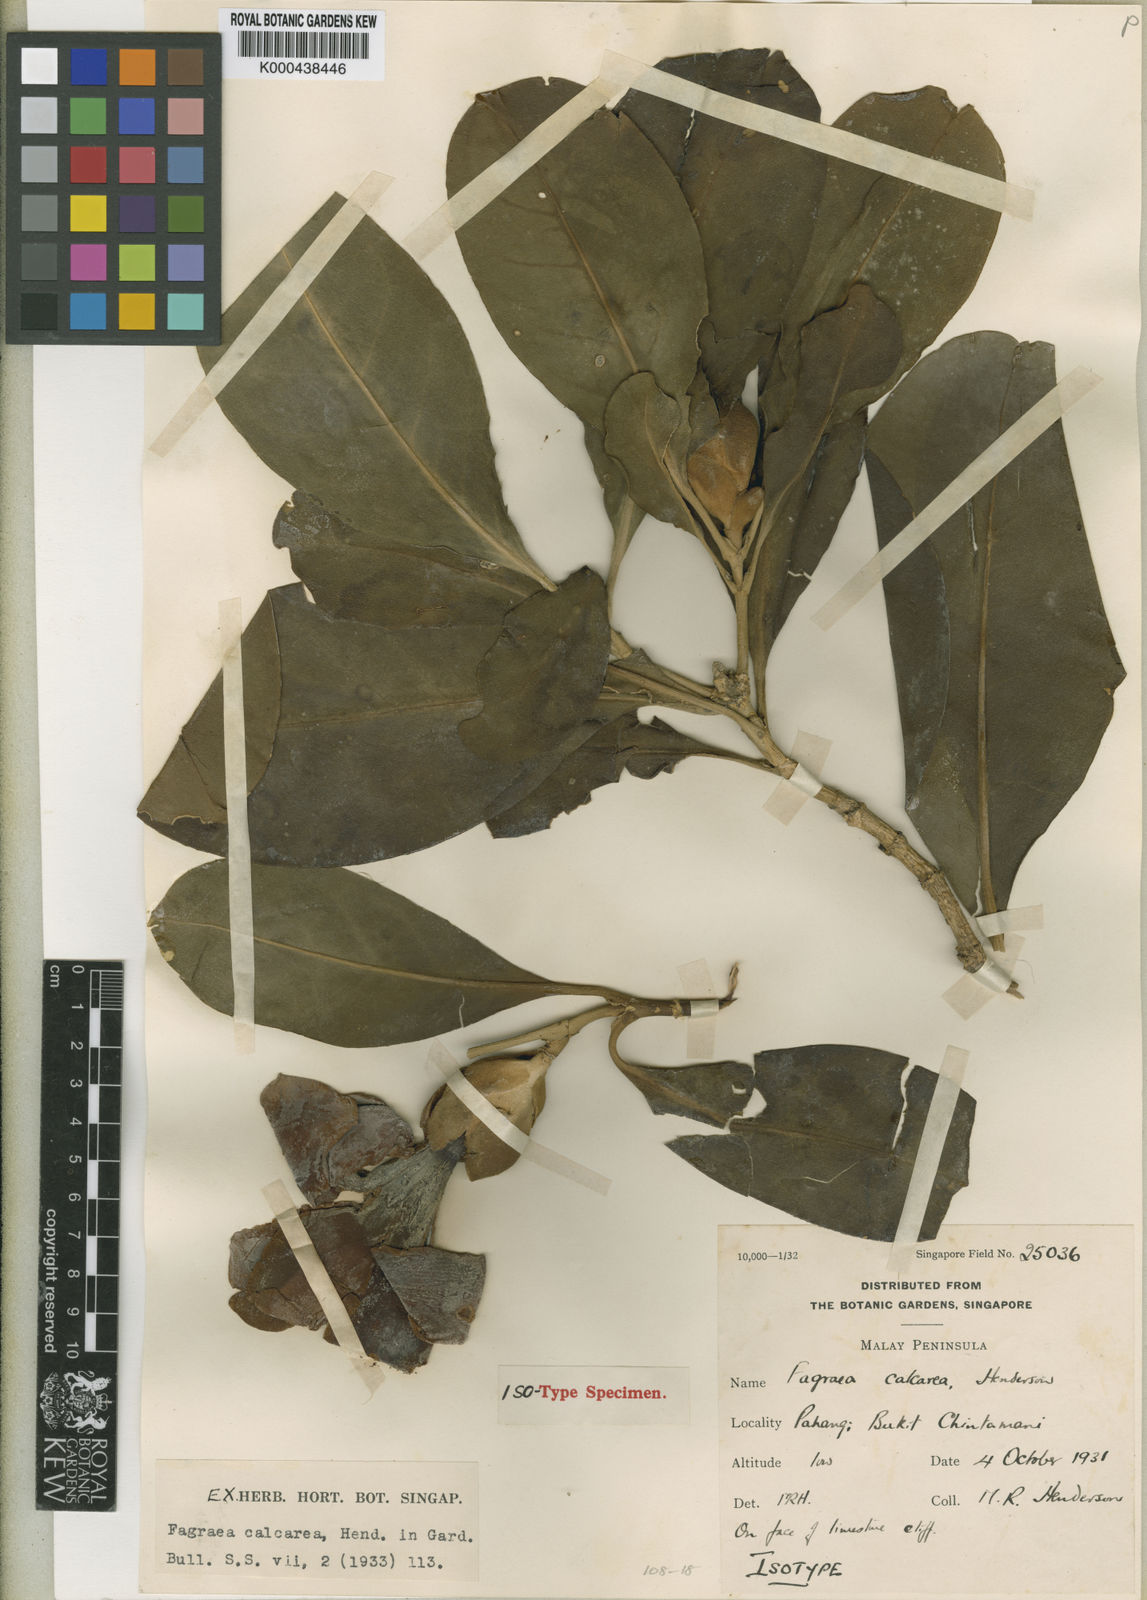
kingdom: Plantae
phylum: Tracheophyta
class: Magnoliopsida
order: Gentianales
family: Gentianaceae
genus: Fagraea
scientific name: Fagraea curtisii
